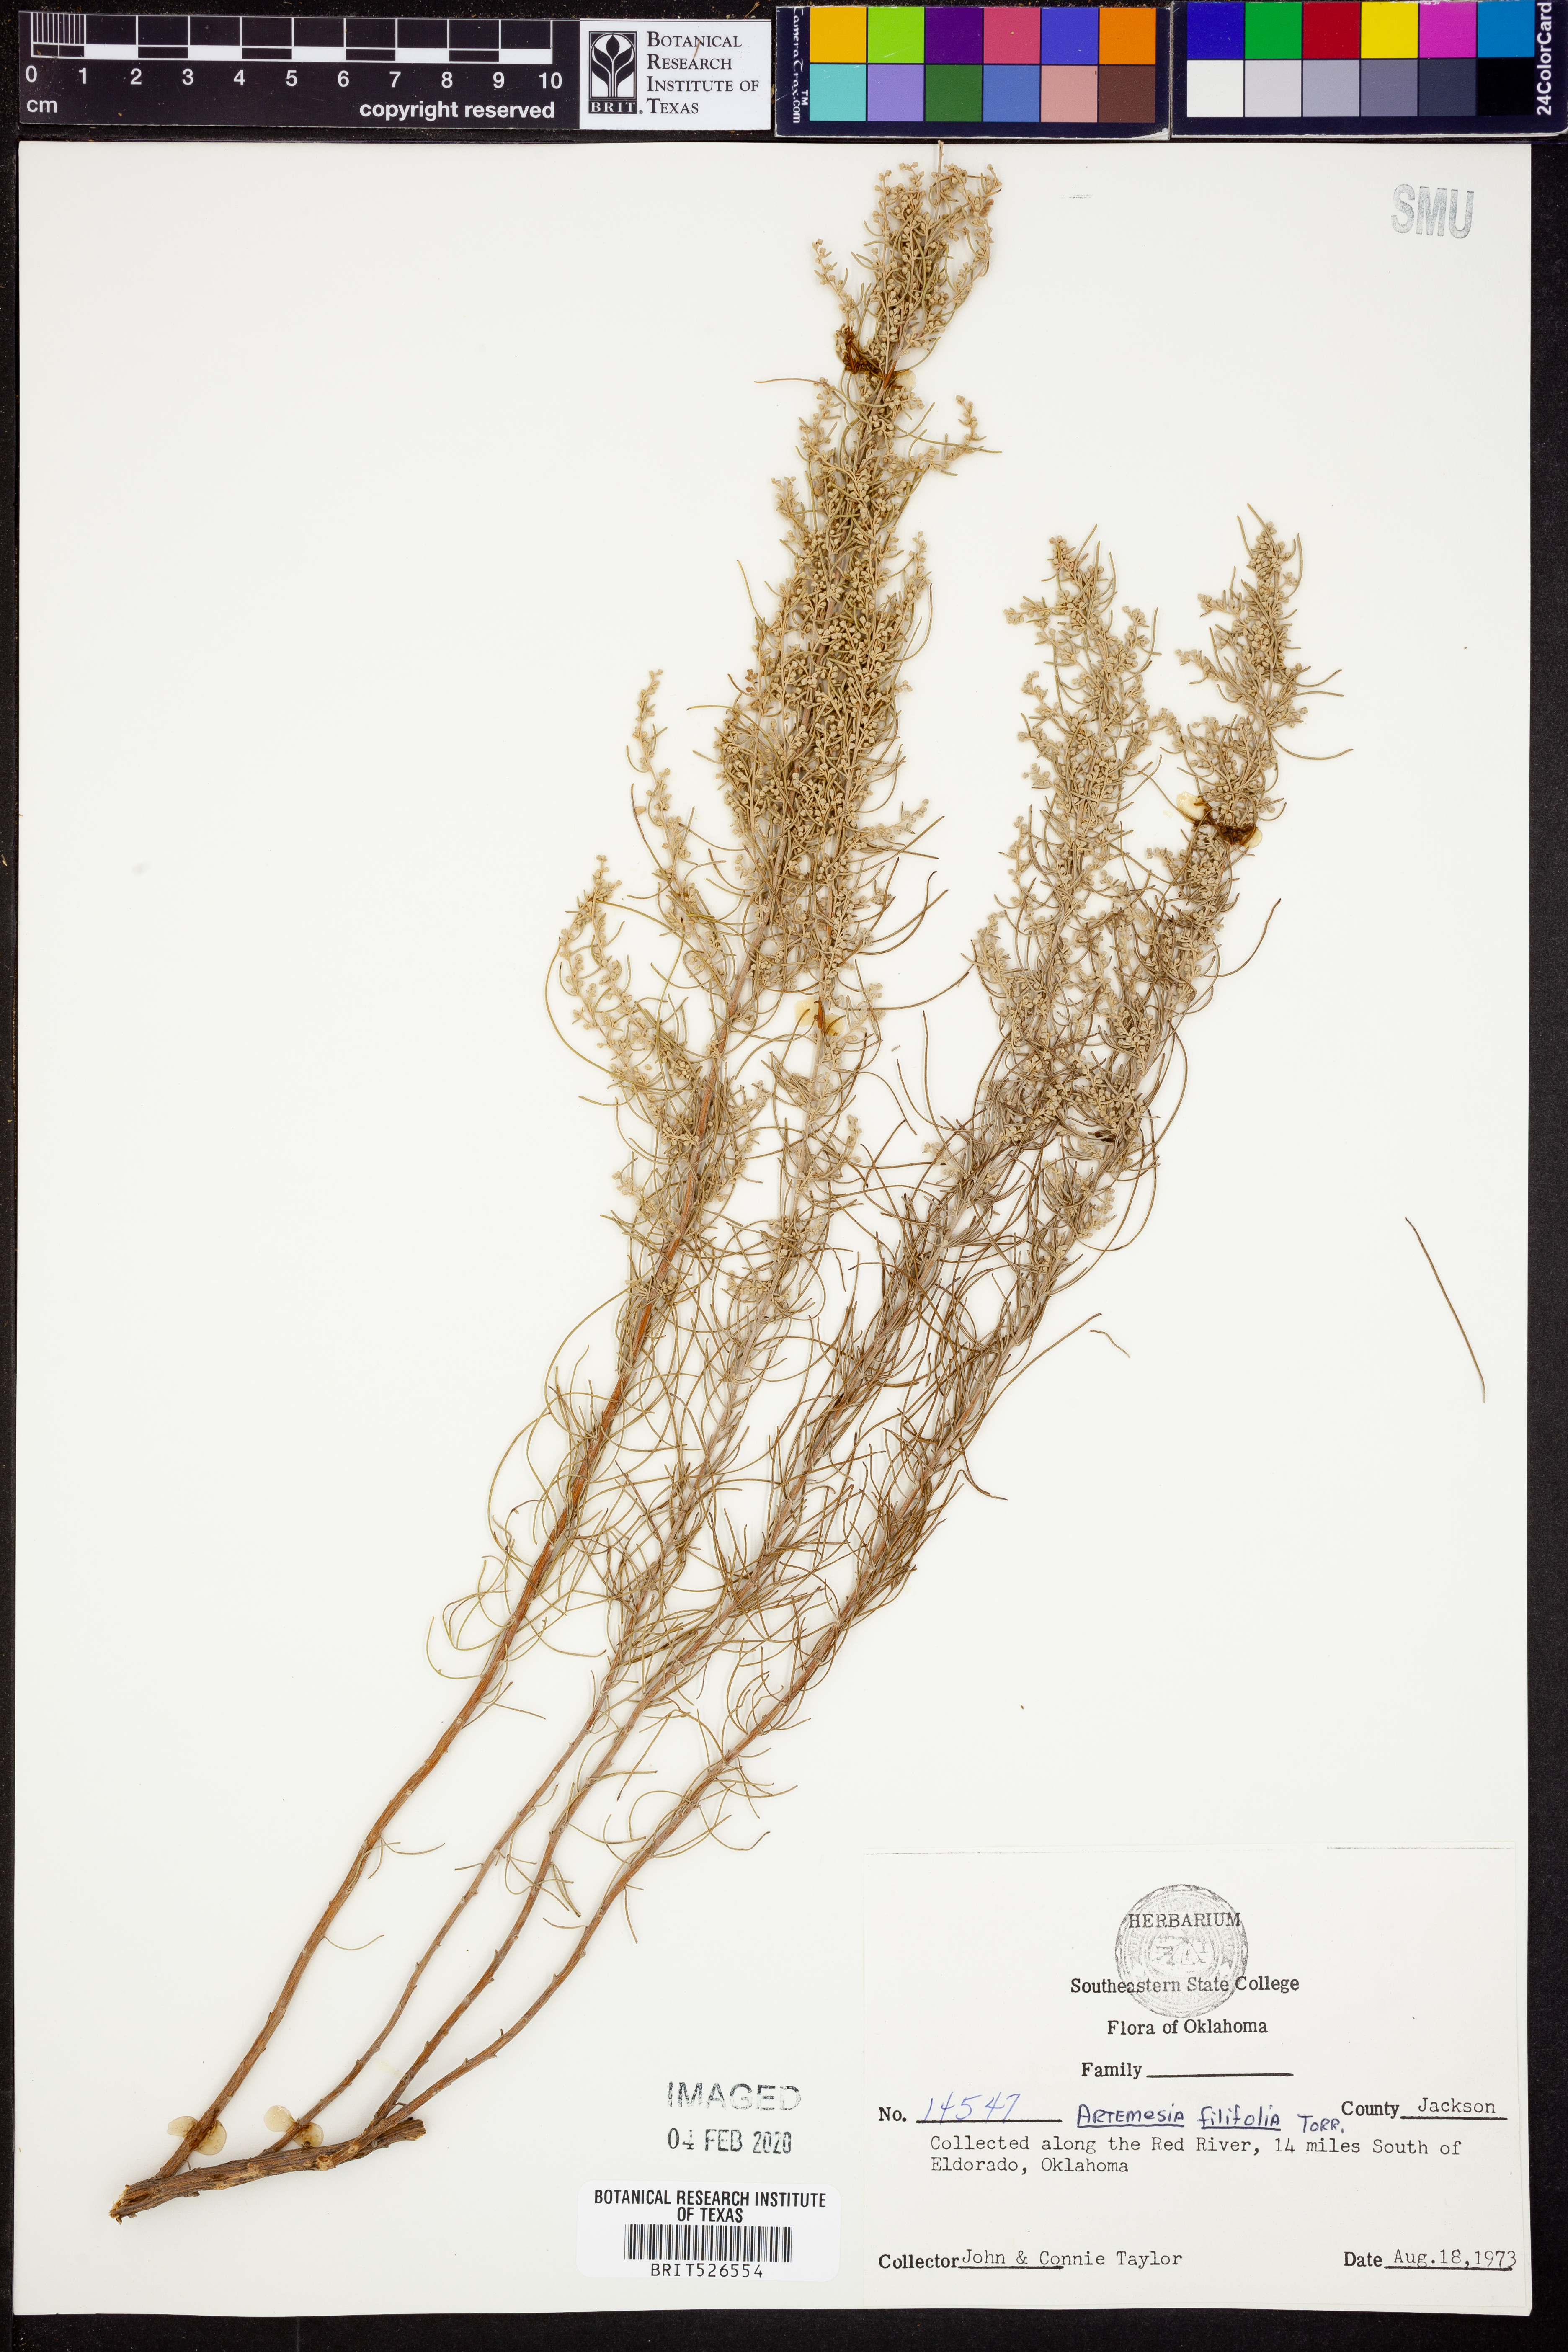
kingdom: Plantae
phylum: Tracheophyta
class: Magnoliopsida
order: Asterales
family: Asteraceae
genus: Artemisia
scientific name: Artemisia filifolia
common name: Sand-sage
